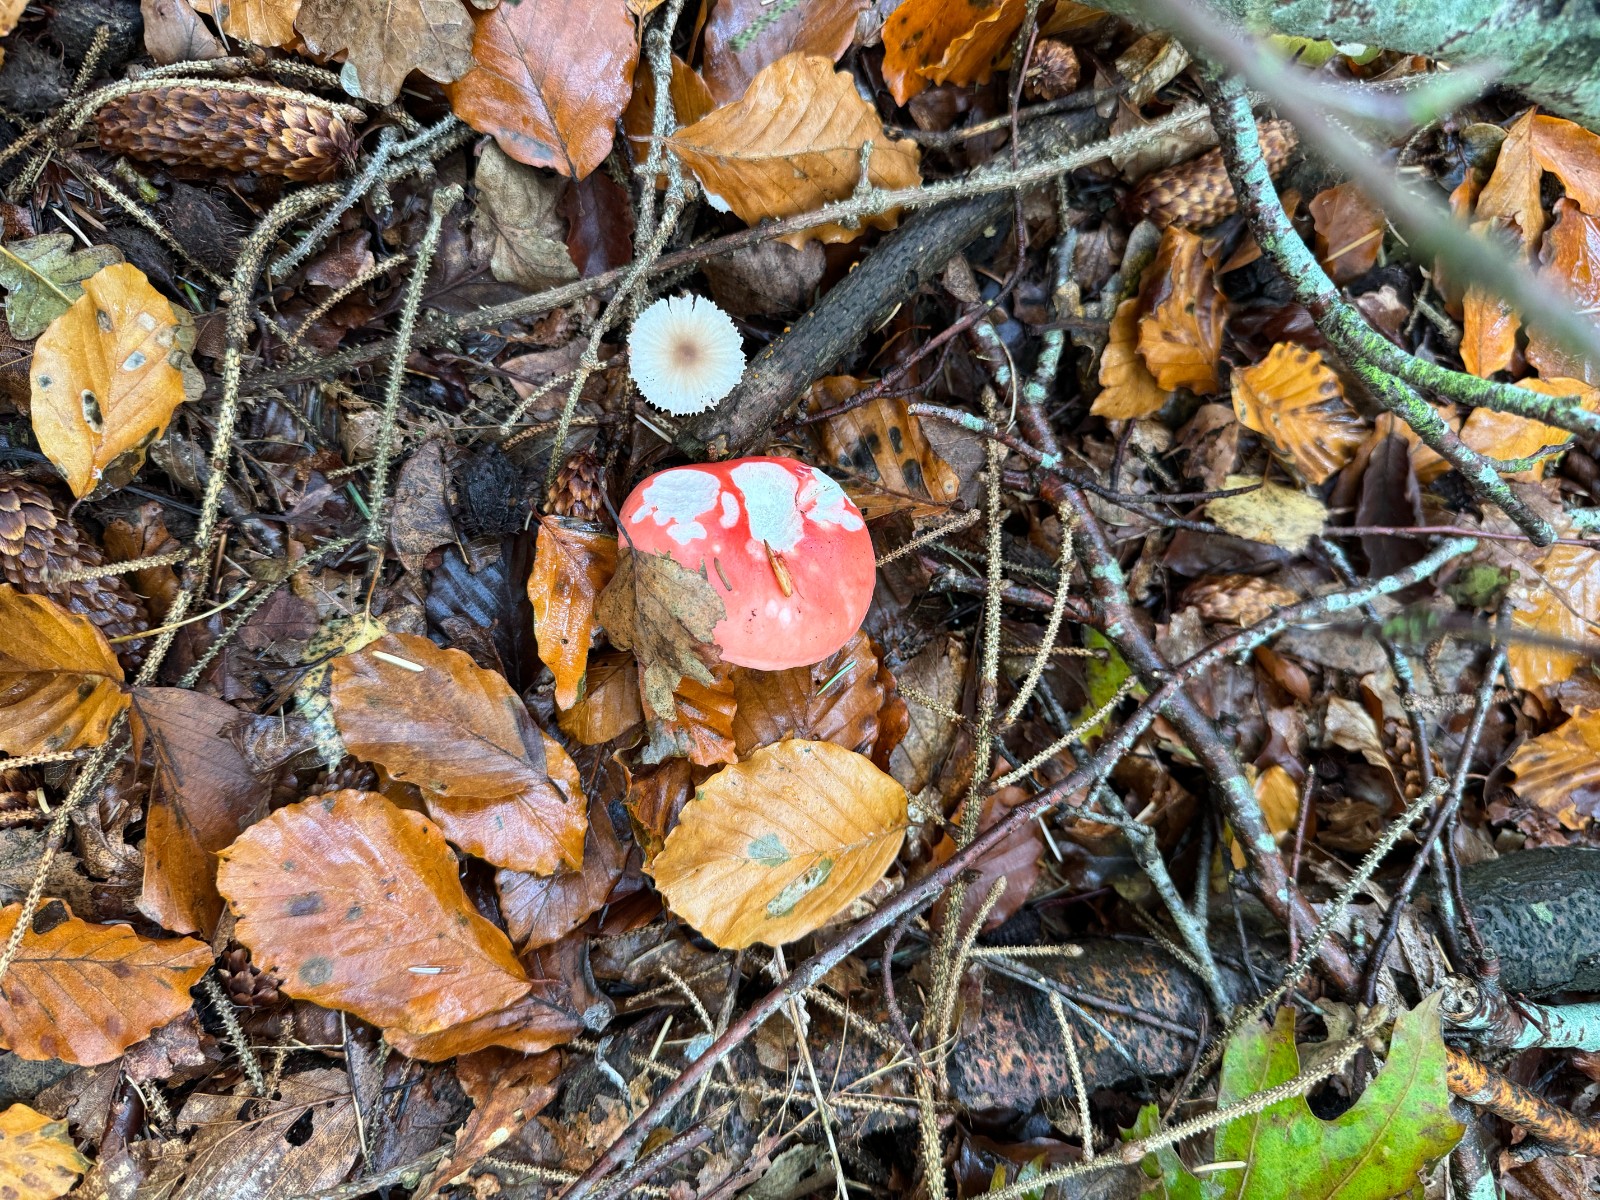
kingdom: Fungi
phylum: Basidiomycota
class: Agaricomycetes
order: Russulales
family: Russulaceae
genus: Russula
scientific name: Russula
